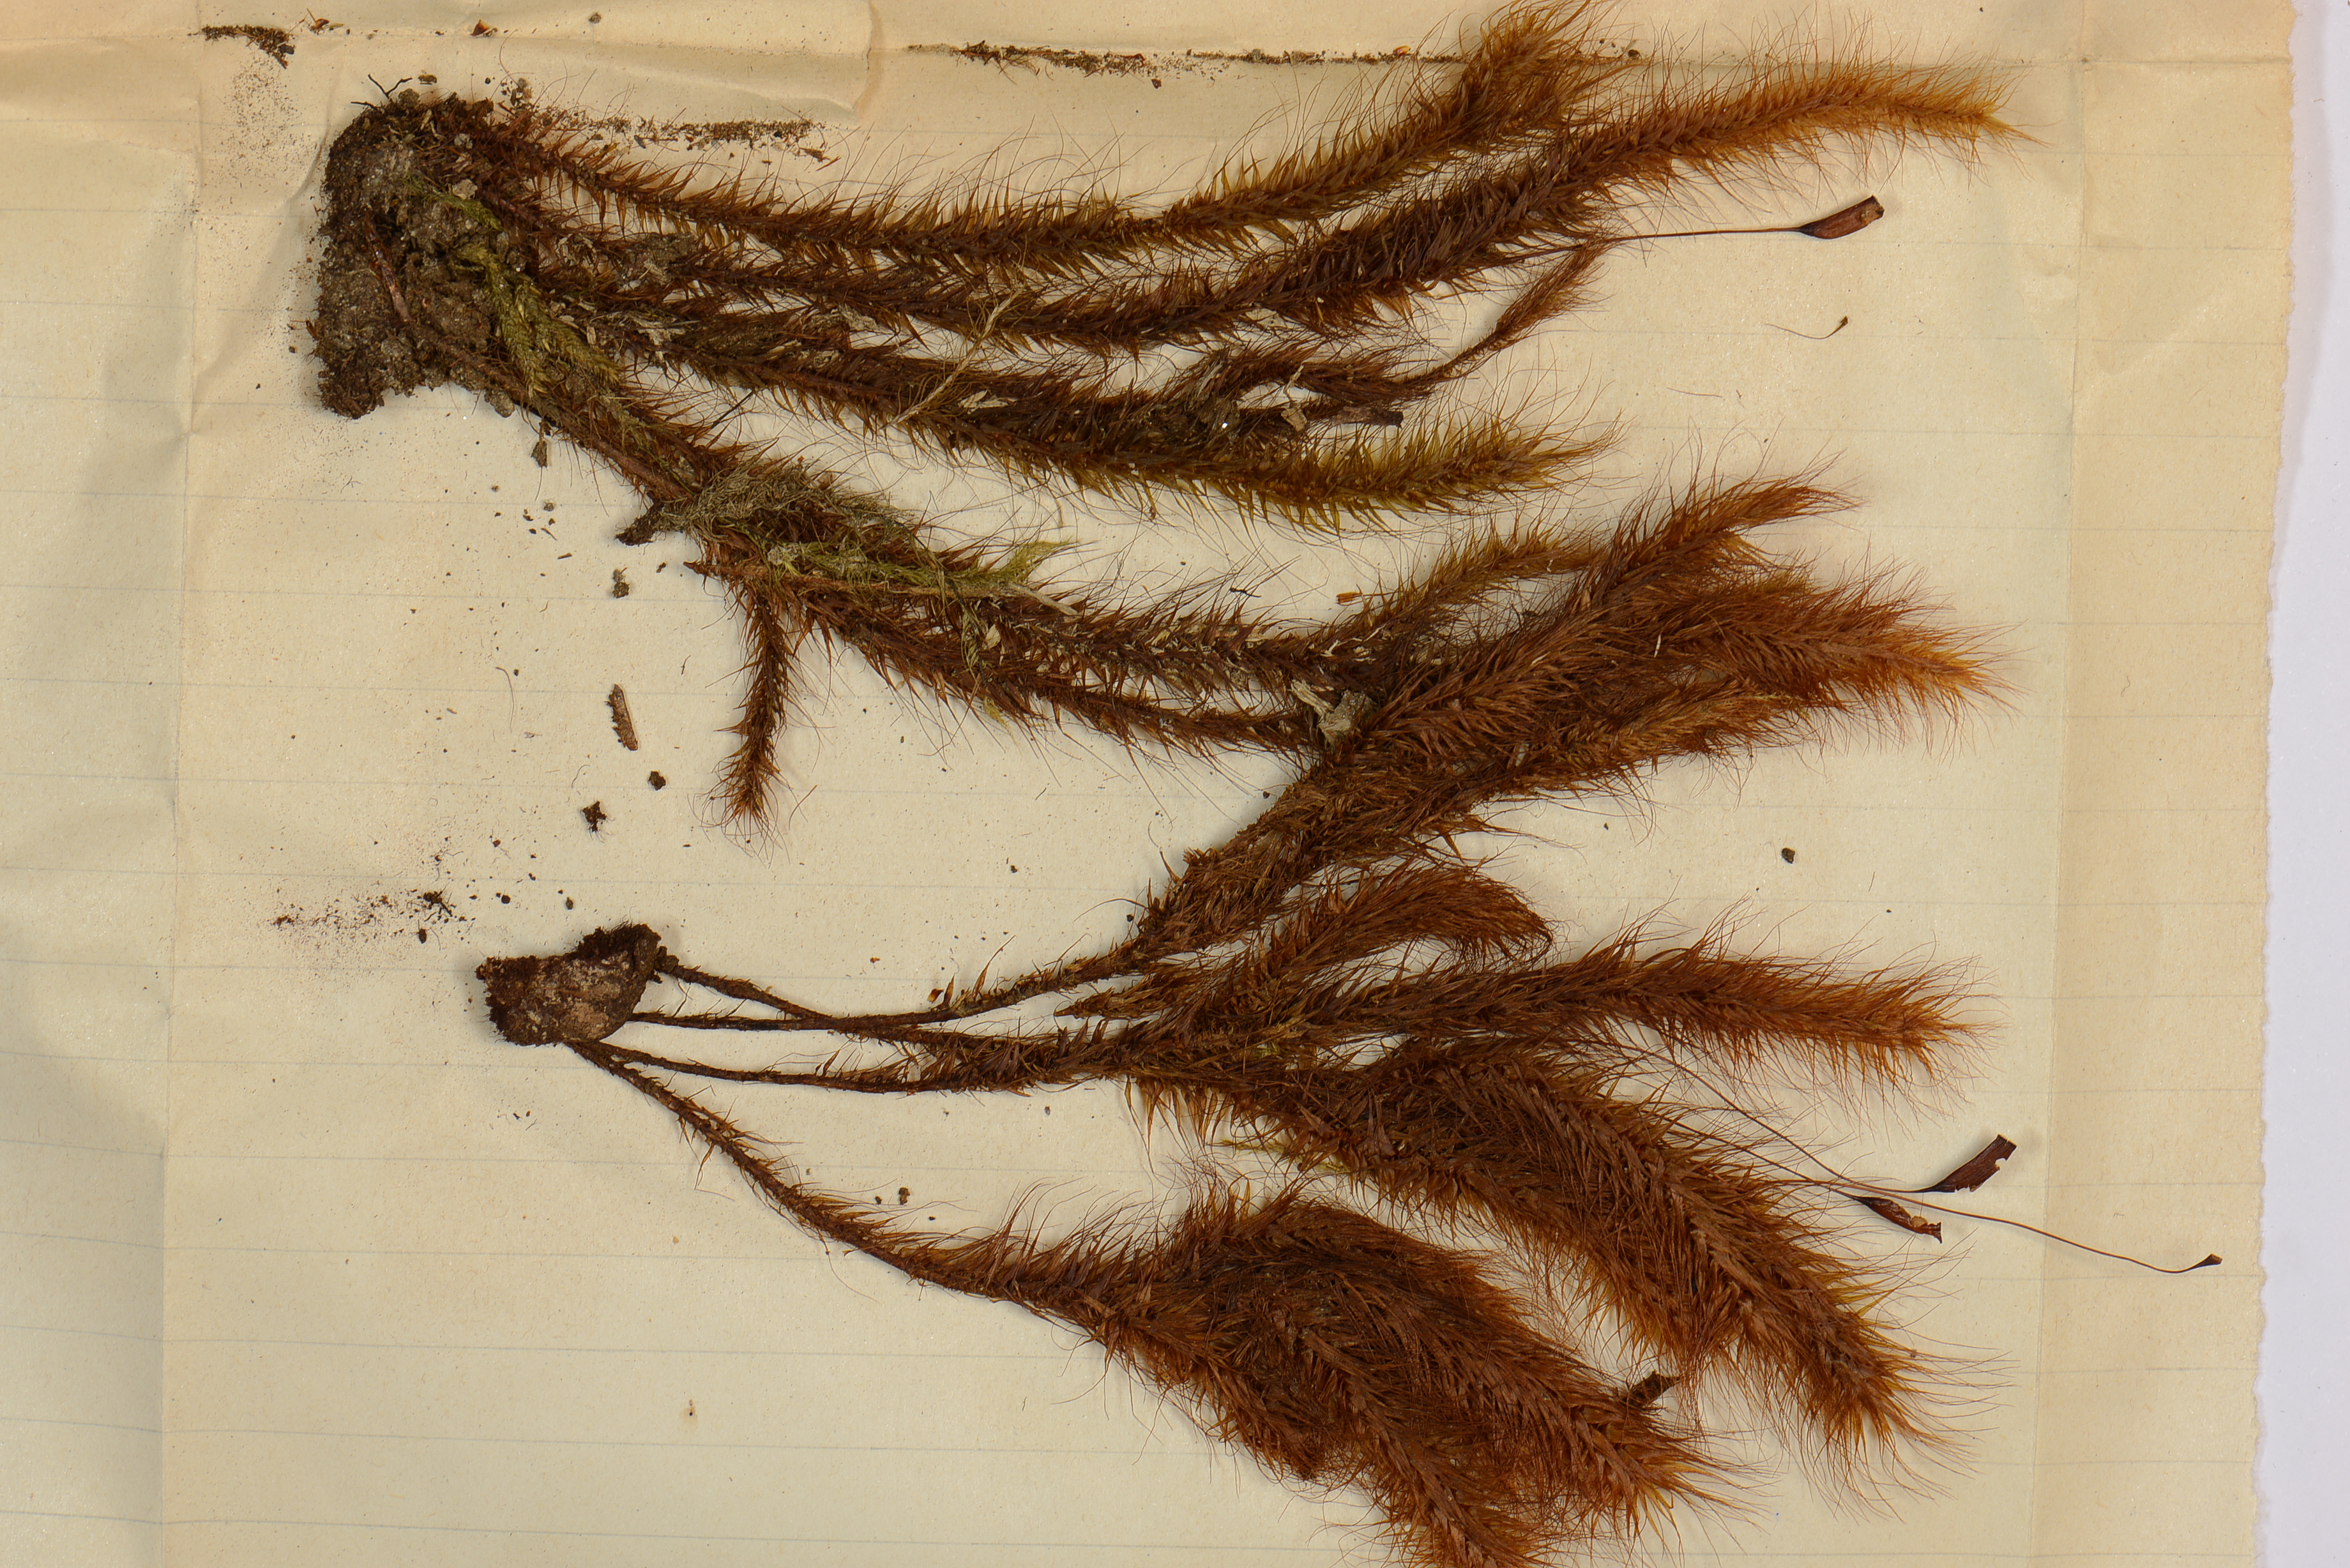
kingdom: Plantae
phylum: Bryophyta
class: Bryopsida
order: Hypnodendrales
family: Spiridentaceae
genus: Spiridens
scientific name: Spiridens spiridentoides
